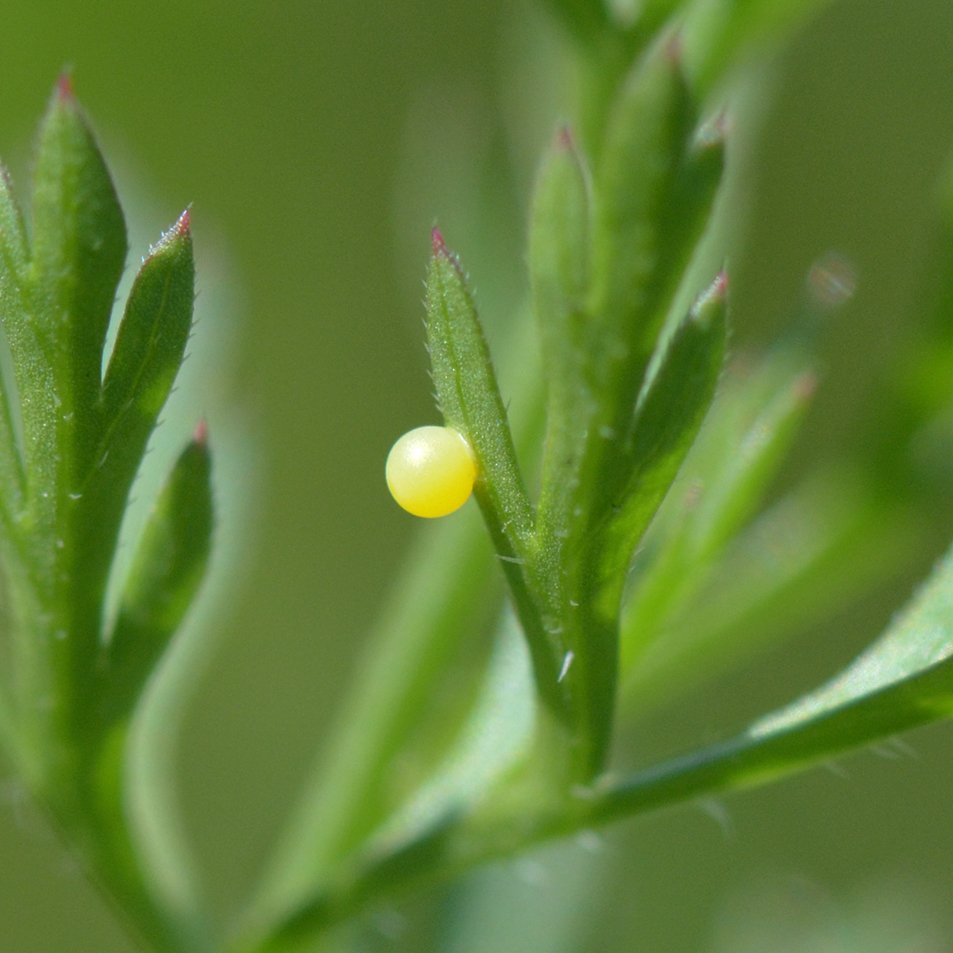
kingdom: Animalia
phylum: Arthropoda
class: Insecta
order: Lepidoptera
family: Papilionidae
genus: Papilio
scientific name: Papilio polyxenes
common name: Black Swallowtail
